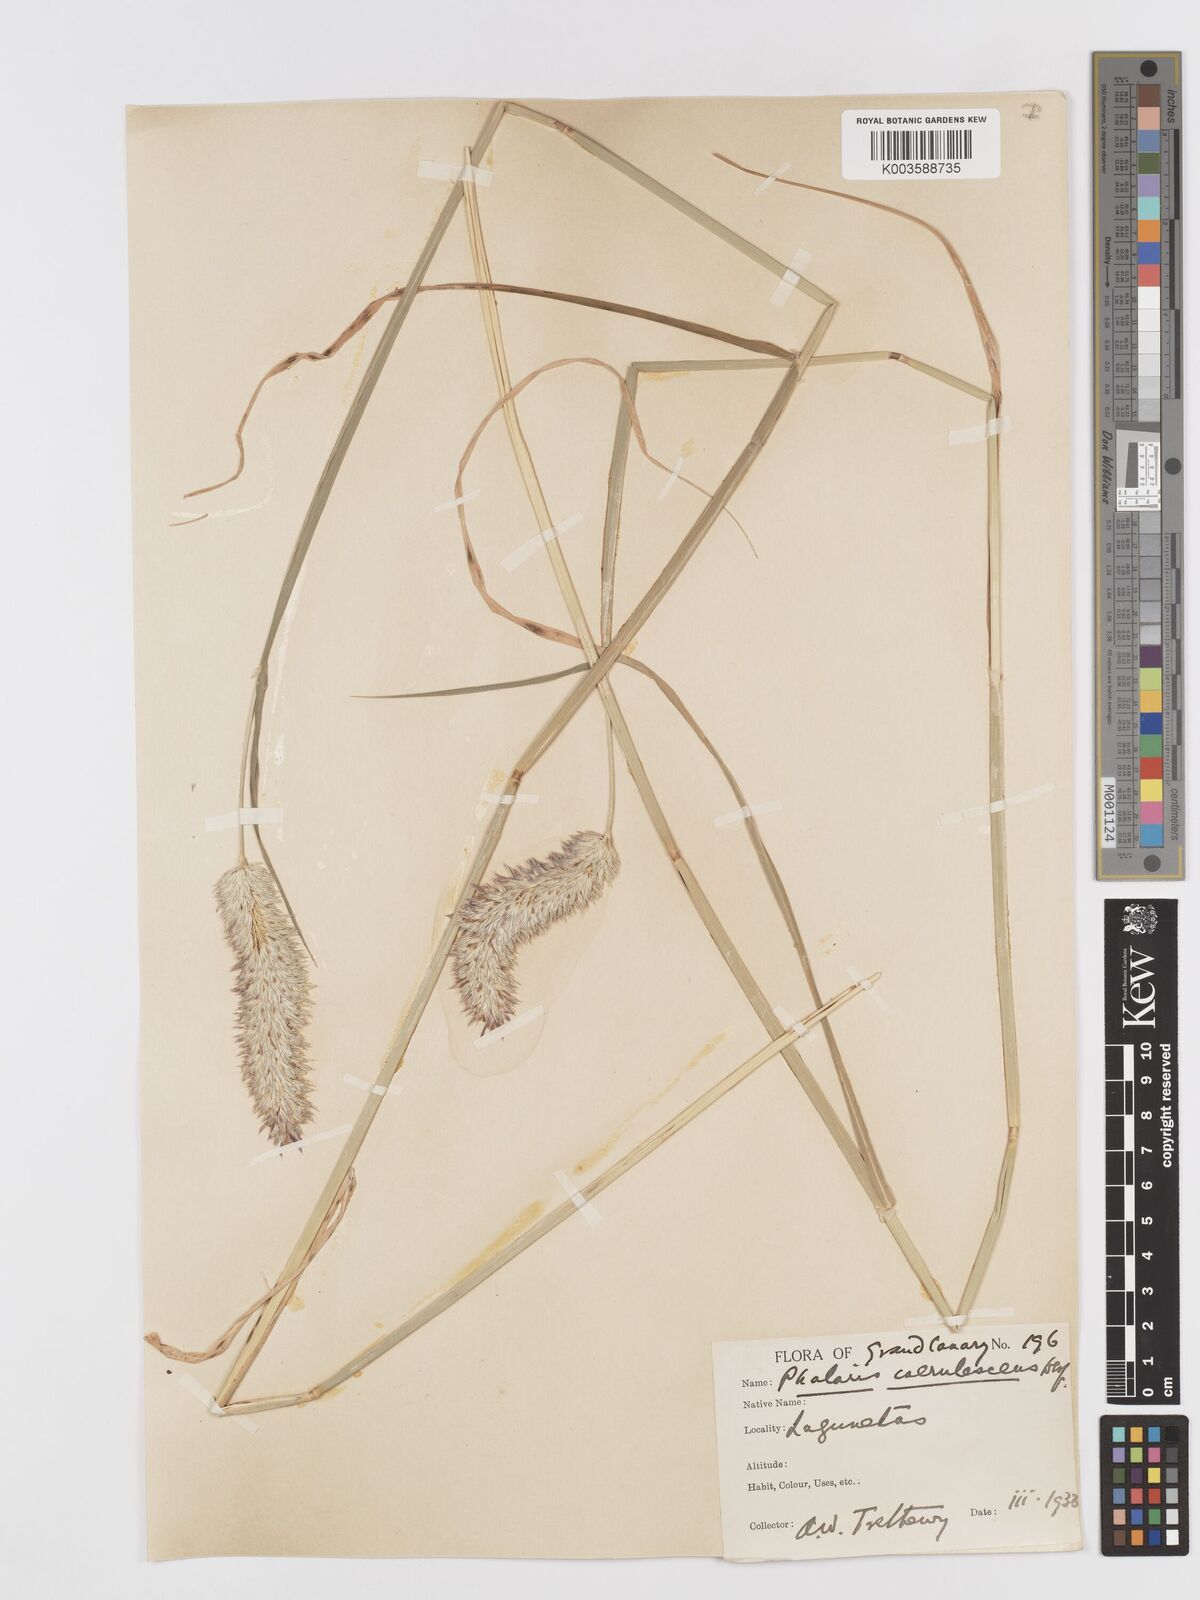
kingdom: Plantae
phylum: Tracheophyta
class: Liliopsida
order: Poales
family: Poaceae
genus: Phalaris
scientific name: Phalaris coerulescens
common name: Sunolgrass
